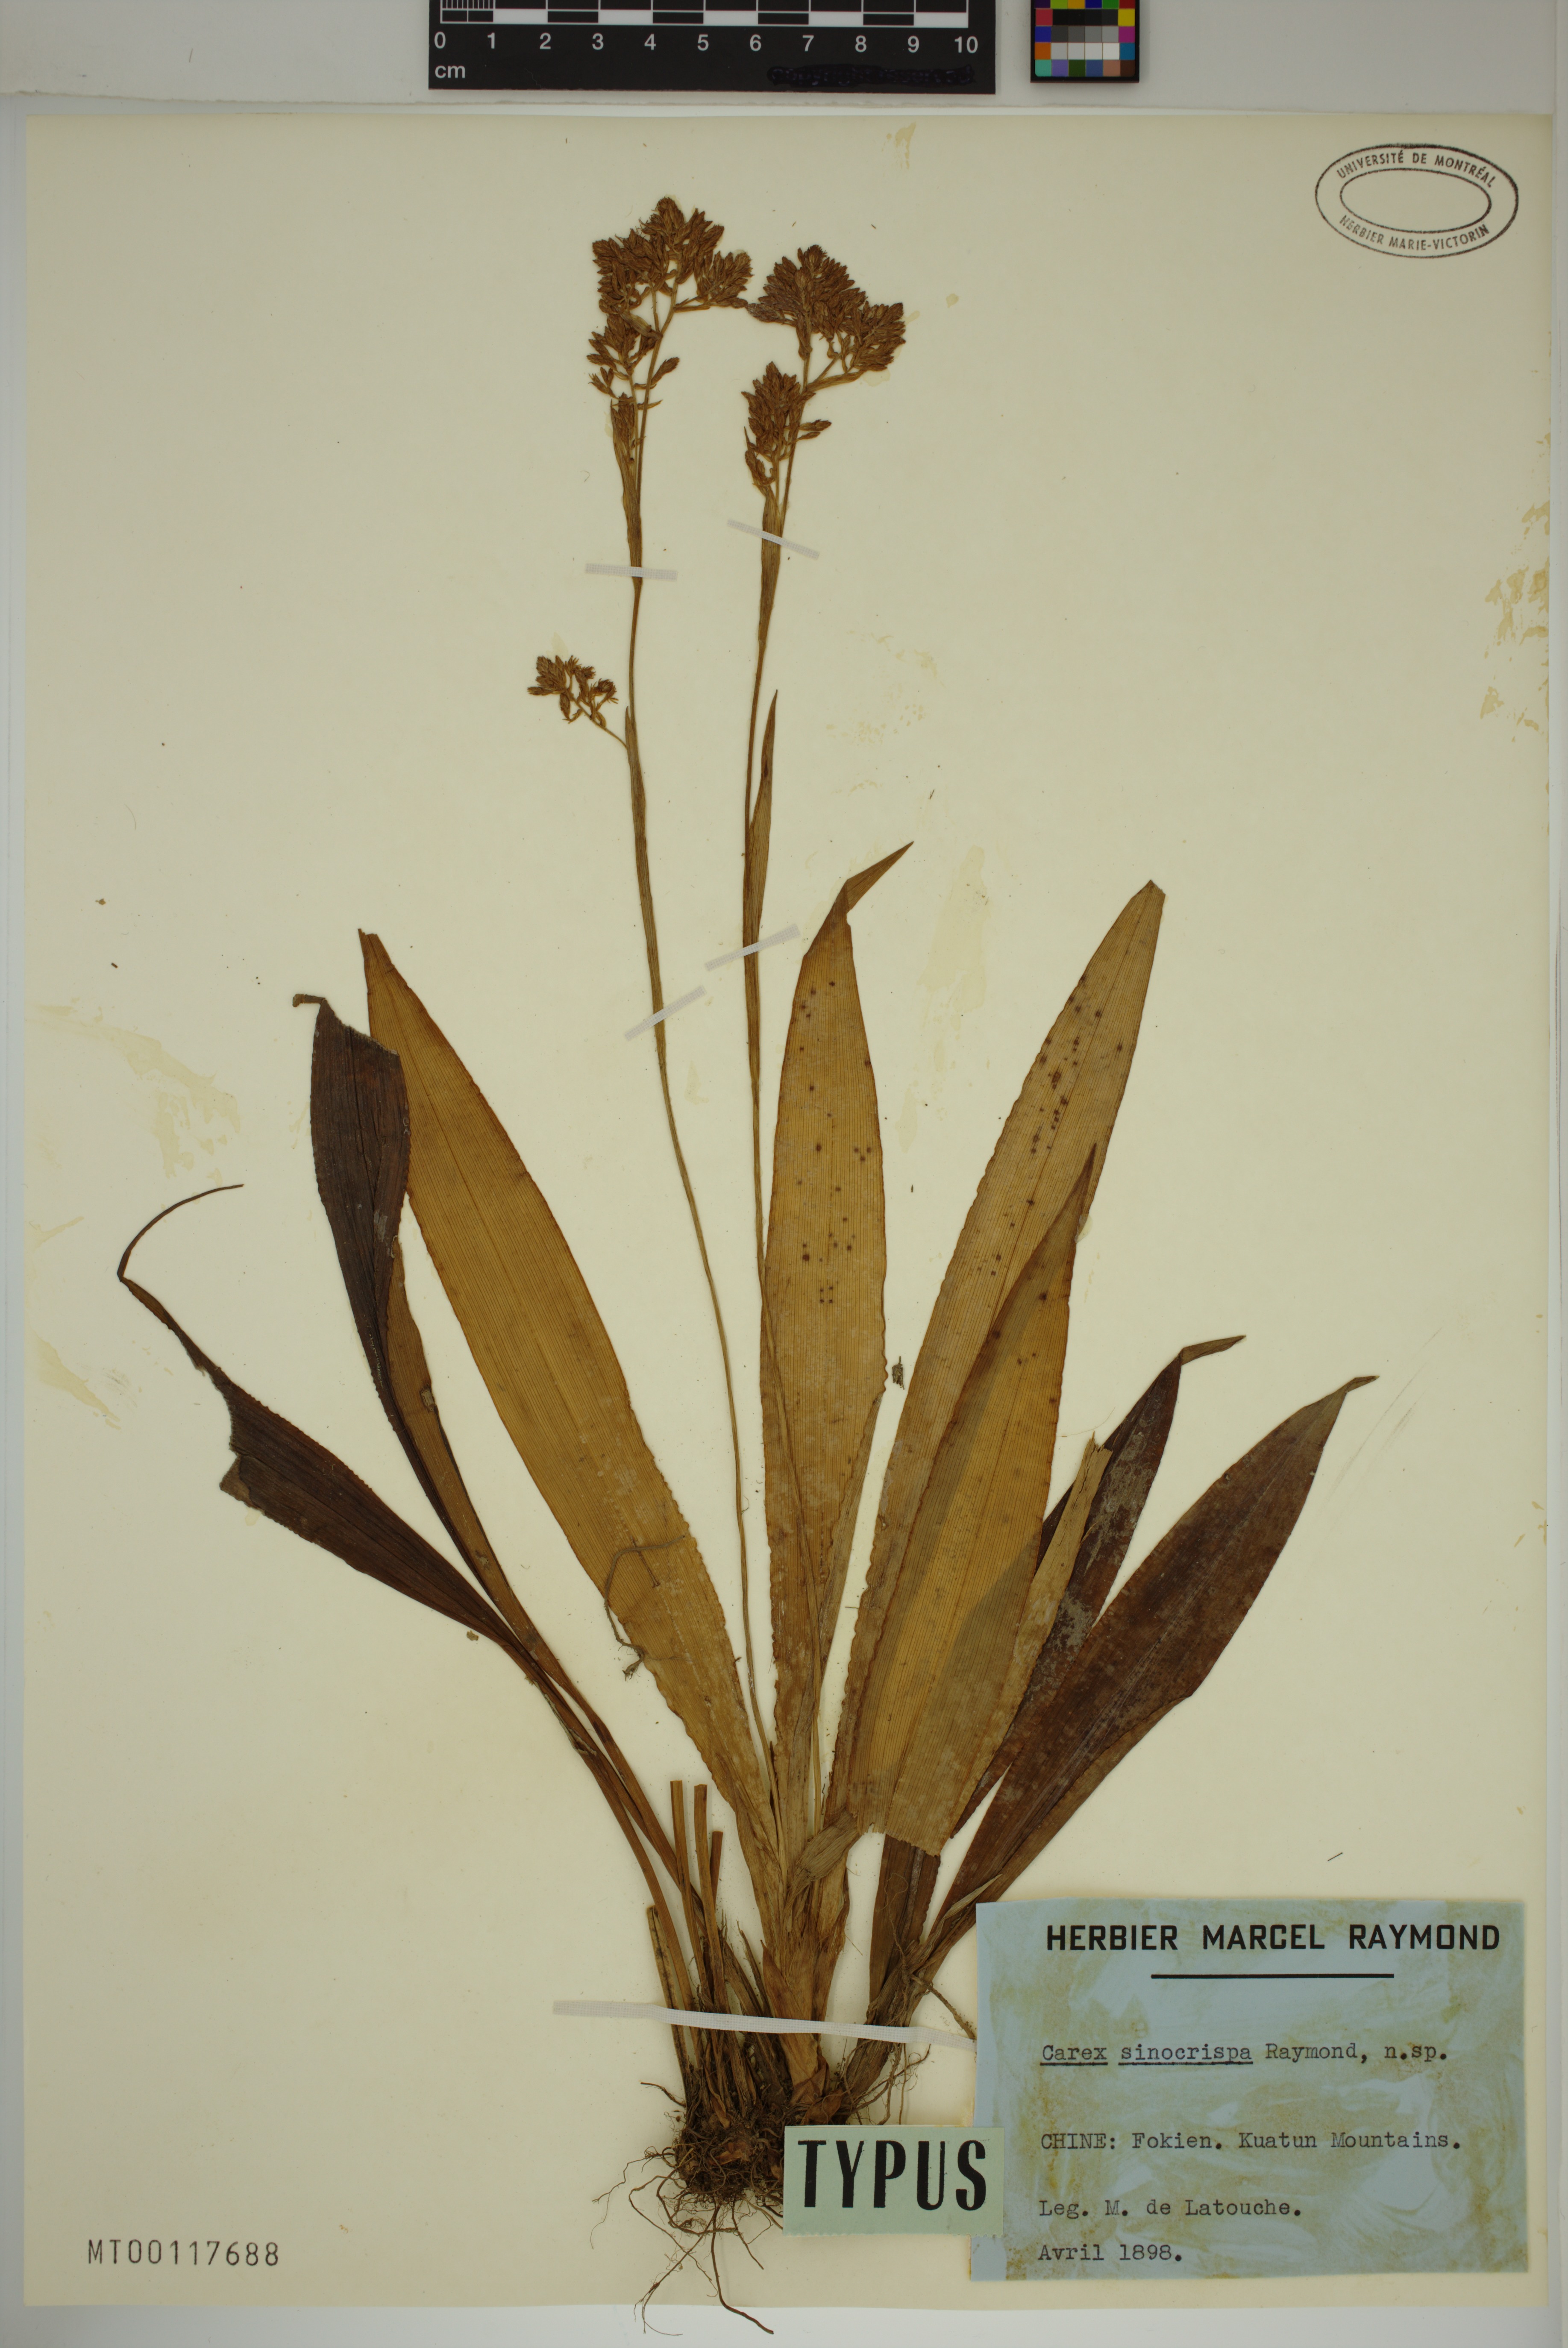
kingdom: Plantae
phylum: Tracheophyta
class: Liliopsida
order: Poales
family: Cyperaceae
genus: Carex
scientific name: Carex lingii
